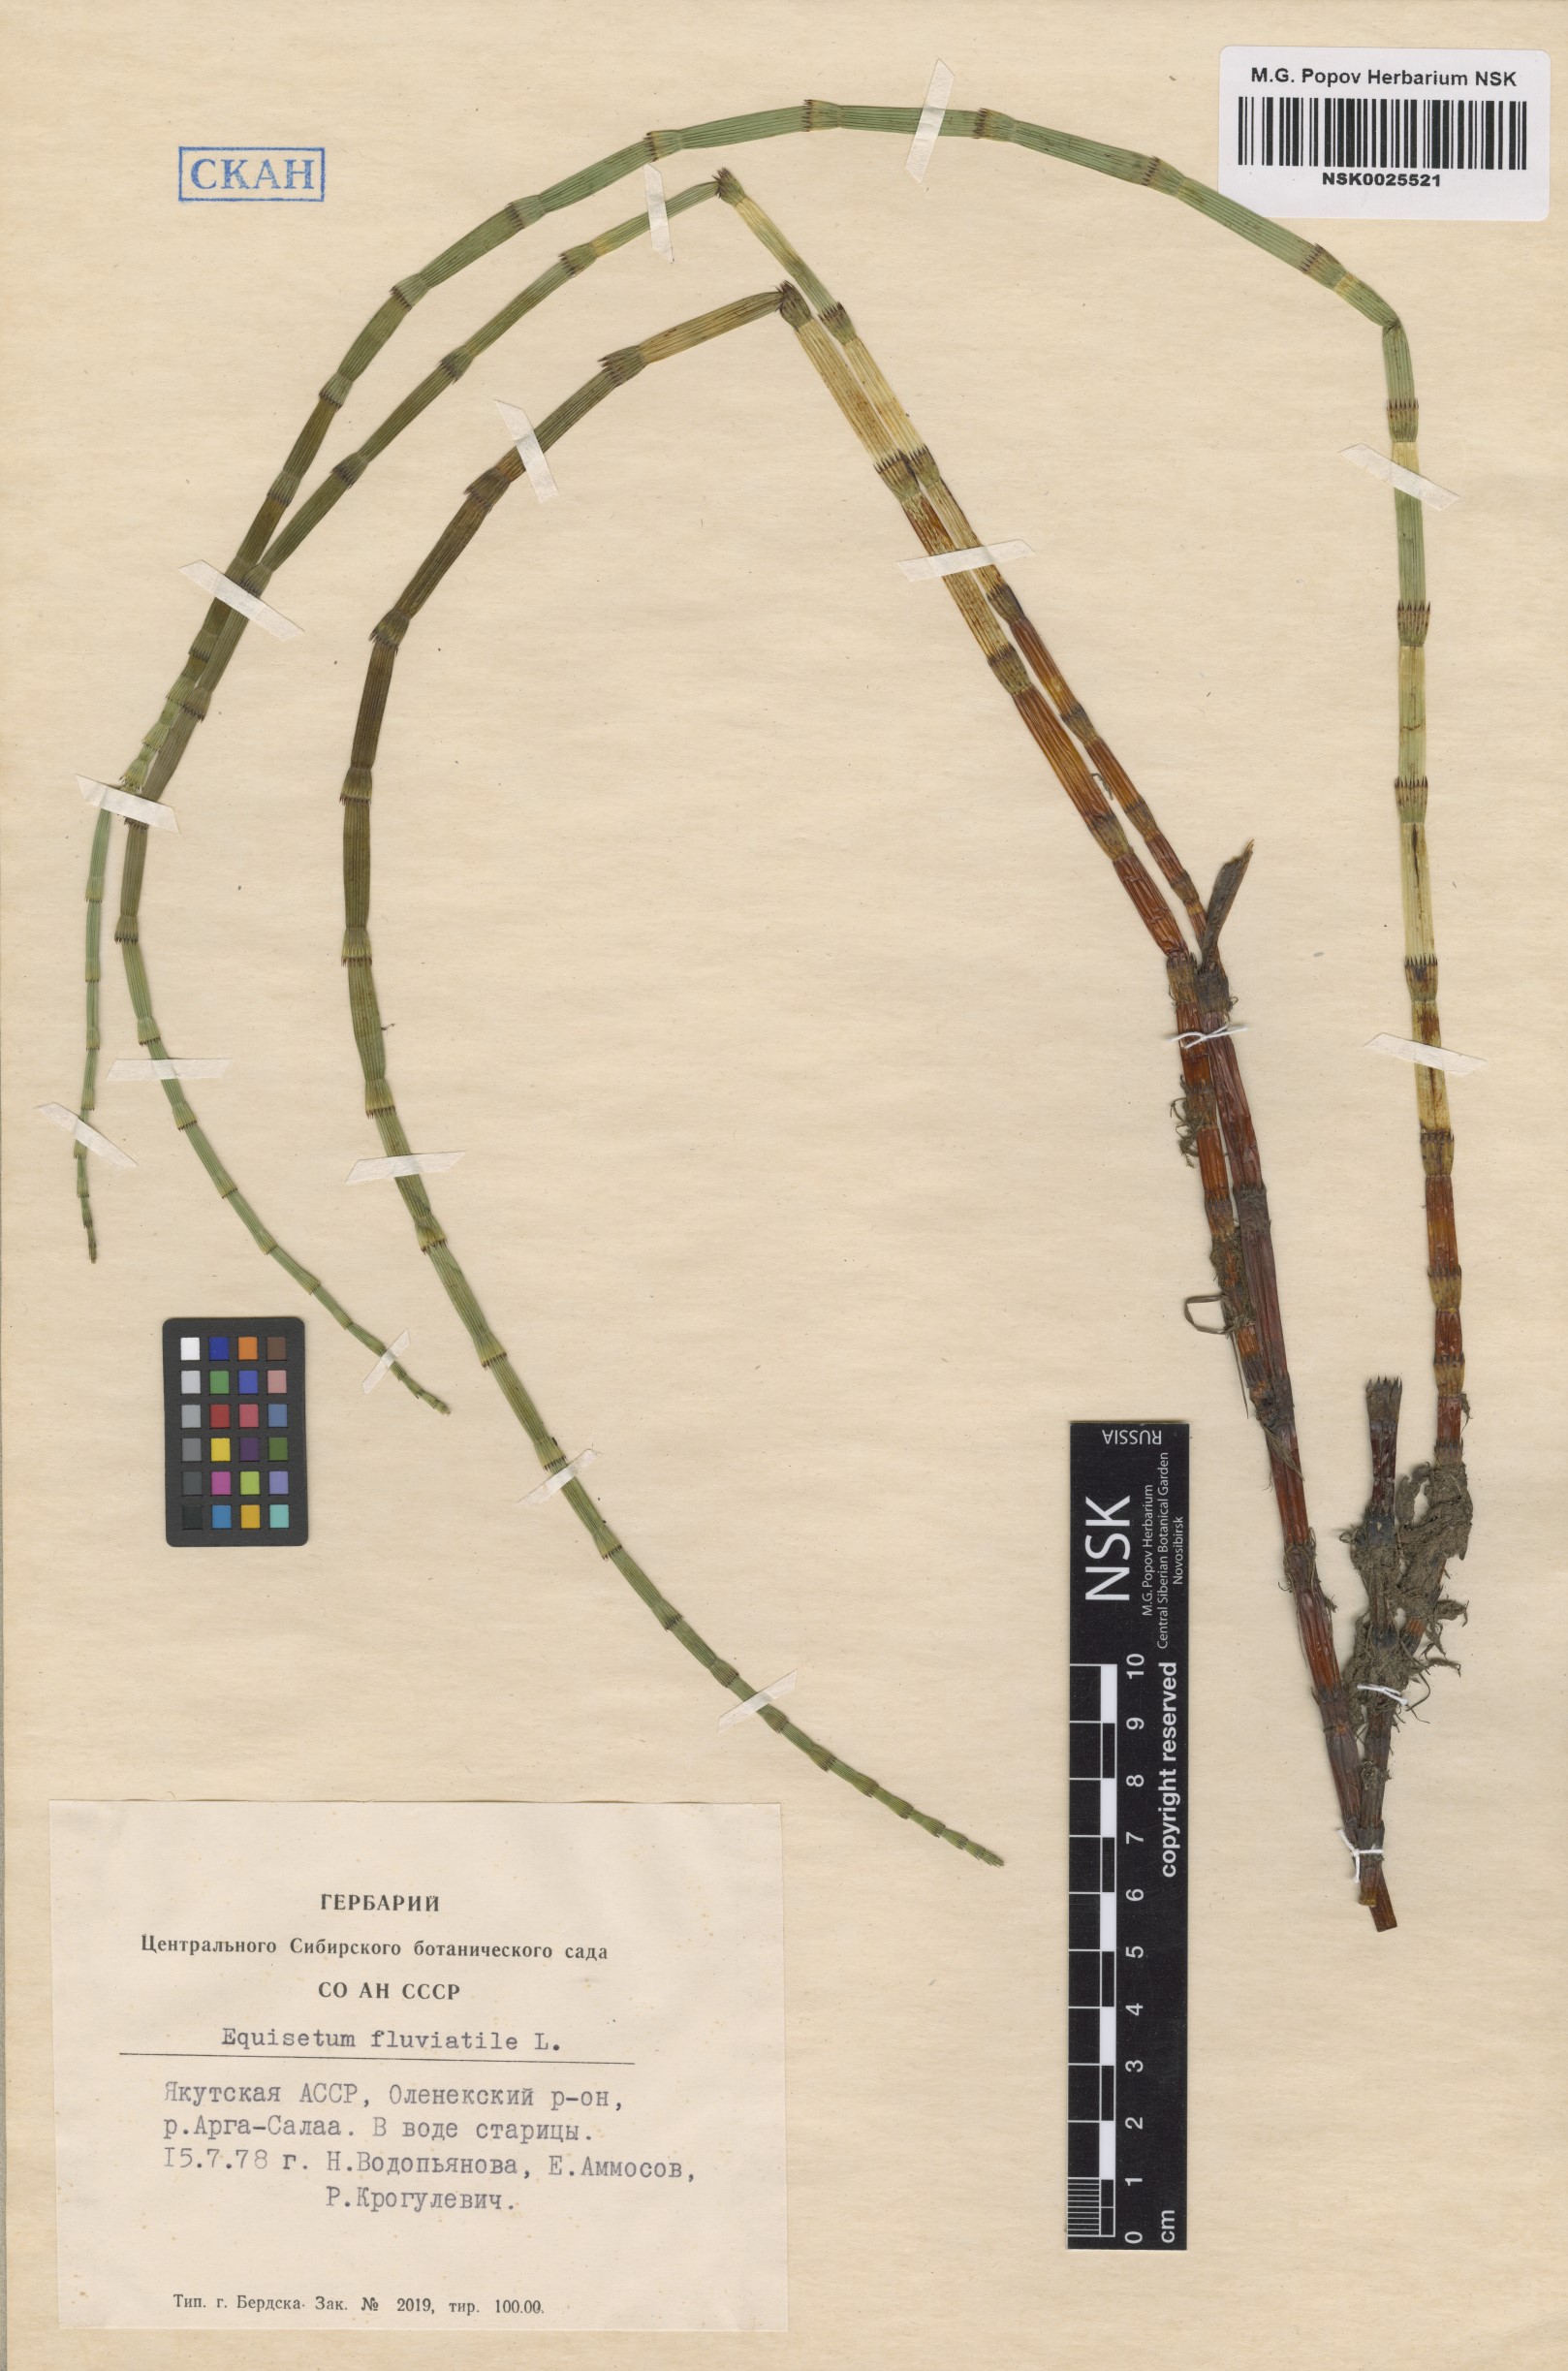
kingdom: Plantae
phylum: Tracheophyta
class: Polypodiopsida
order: Equisetales
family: Equisetaceae
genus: Equisetum
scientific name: Equisetum fluviatile
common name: Water horsetail
